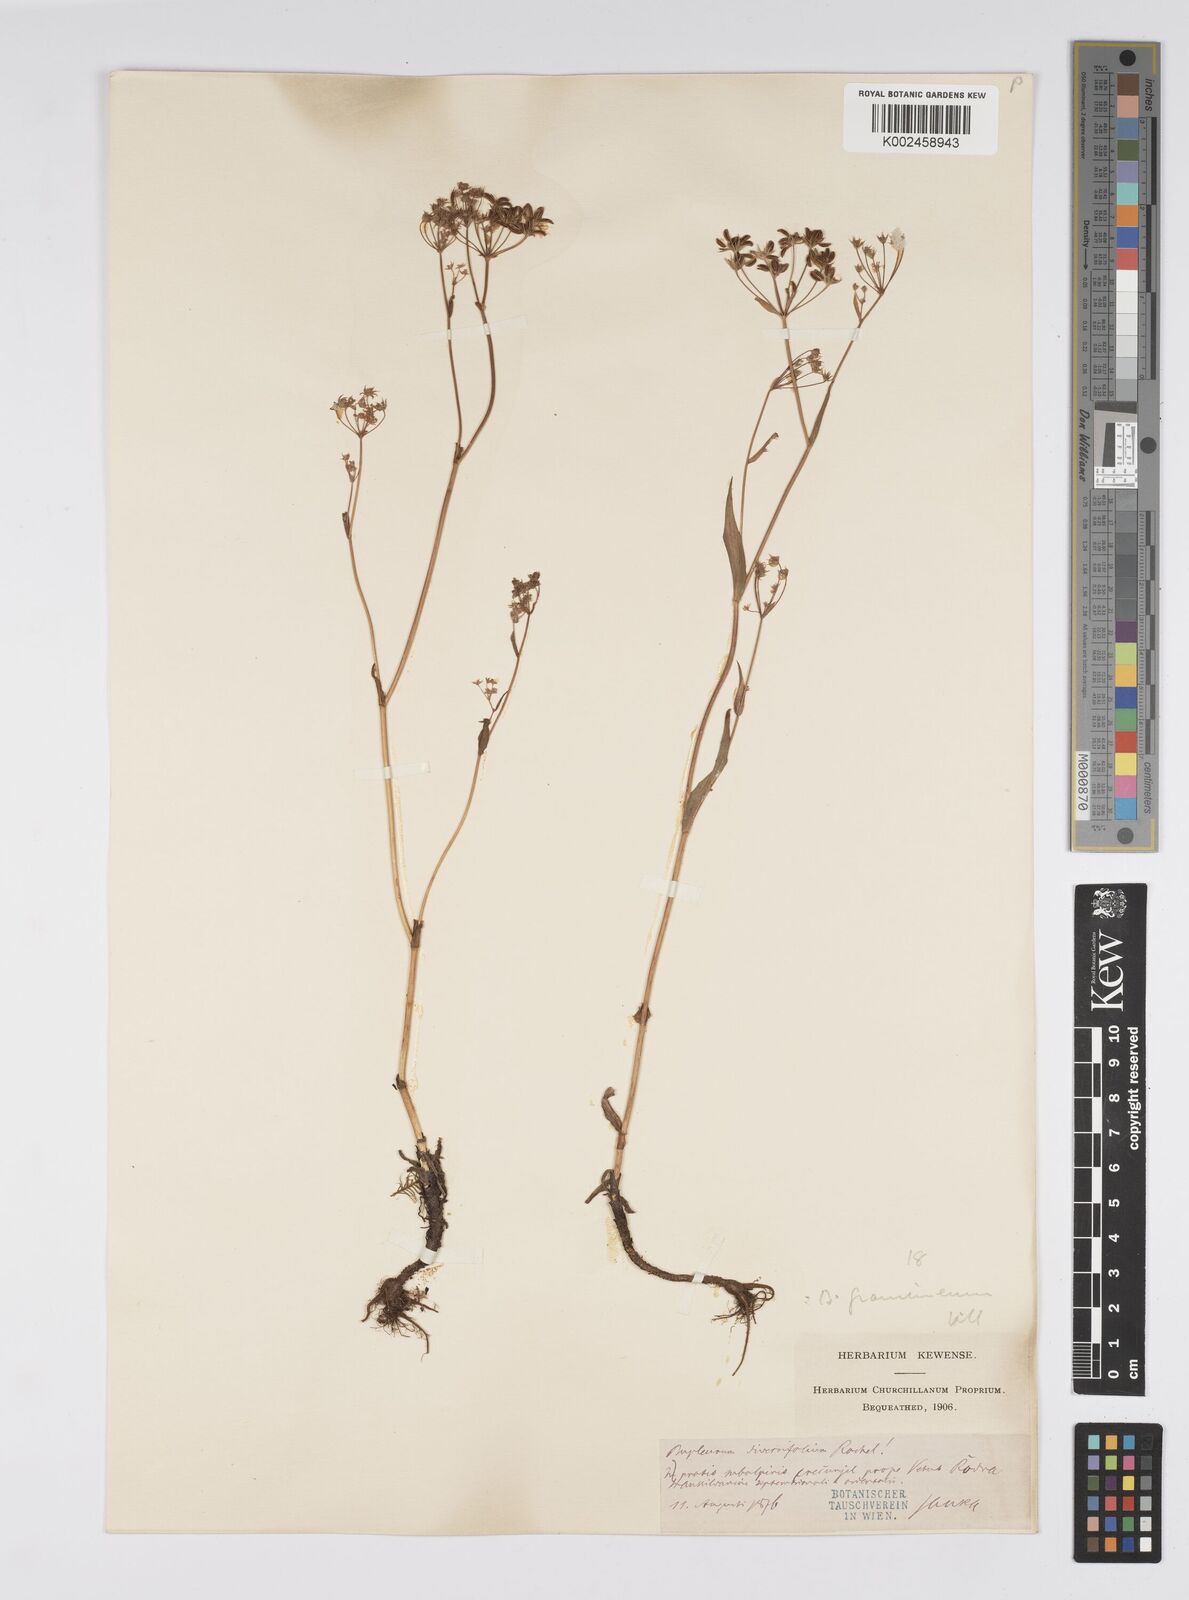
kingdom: Plantae
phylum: Tracheophyta
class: Magnoliopsida
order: Apiales
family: Apiaceae
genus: Bupleurum
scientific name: Bupleurum falcatum
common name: Sickle-leaved hare's-ear
